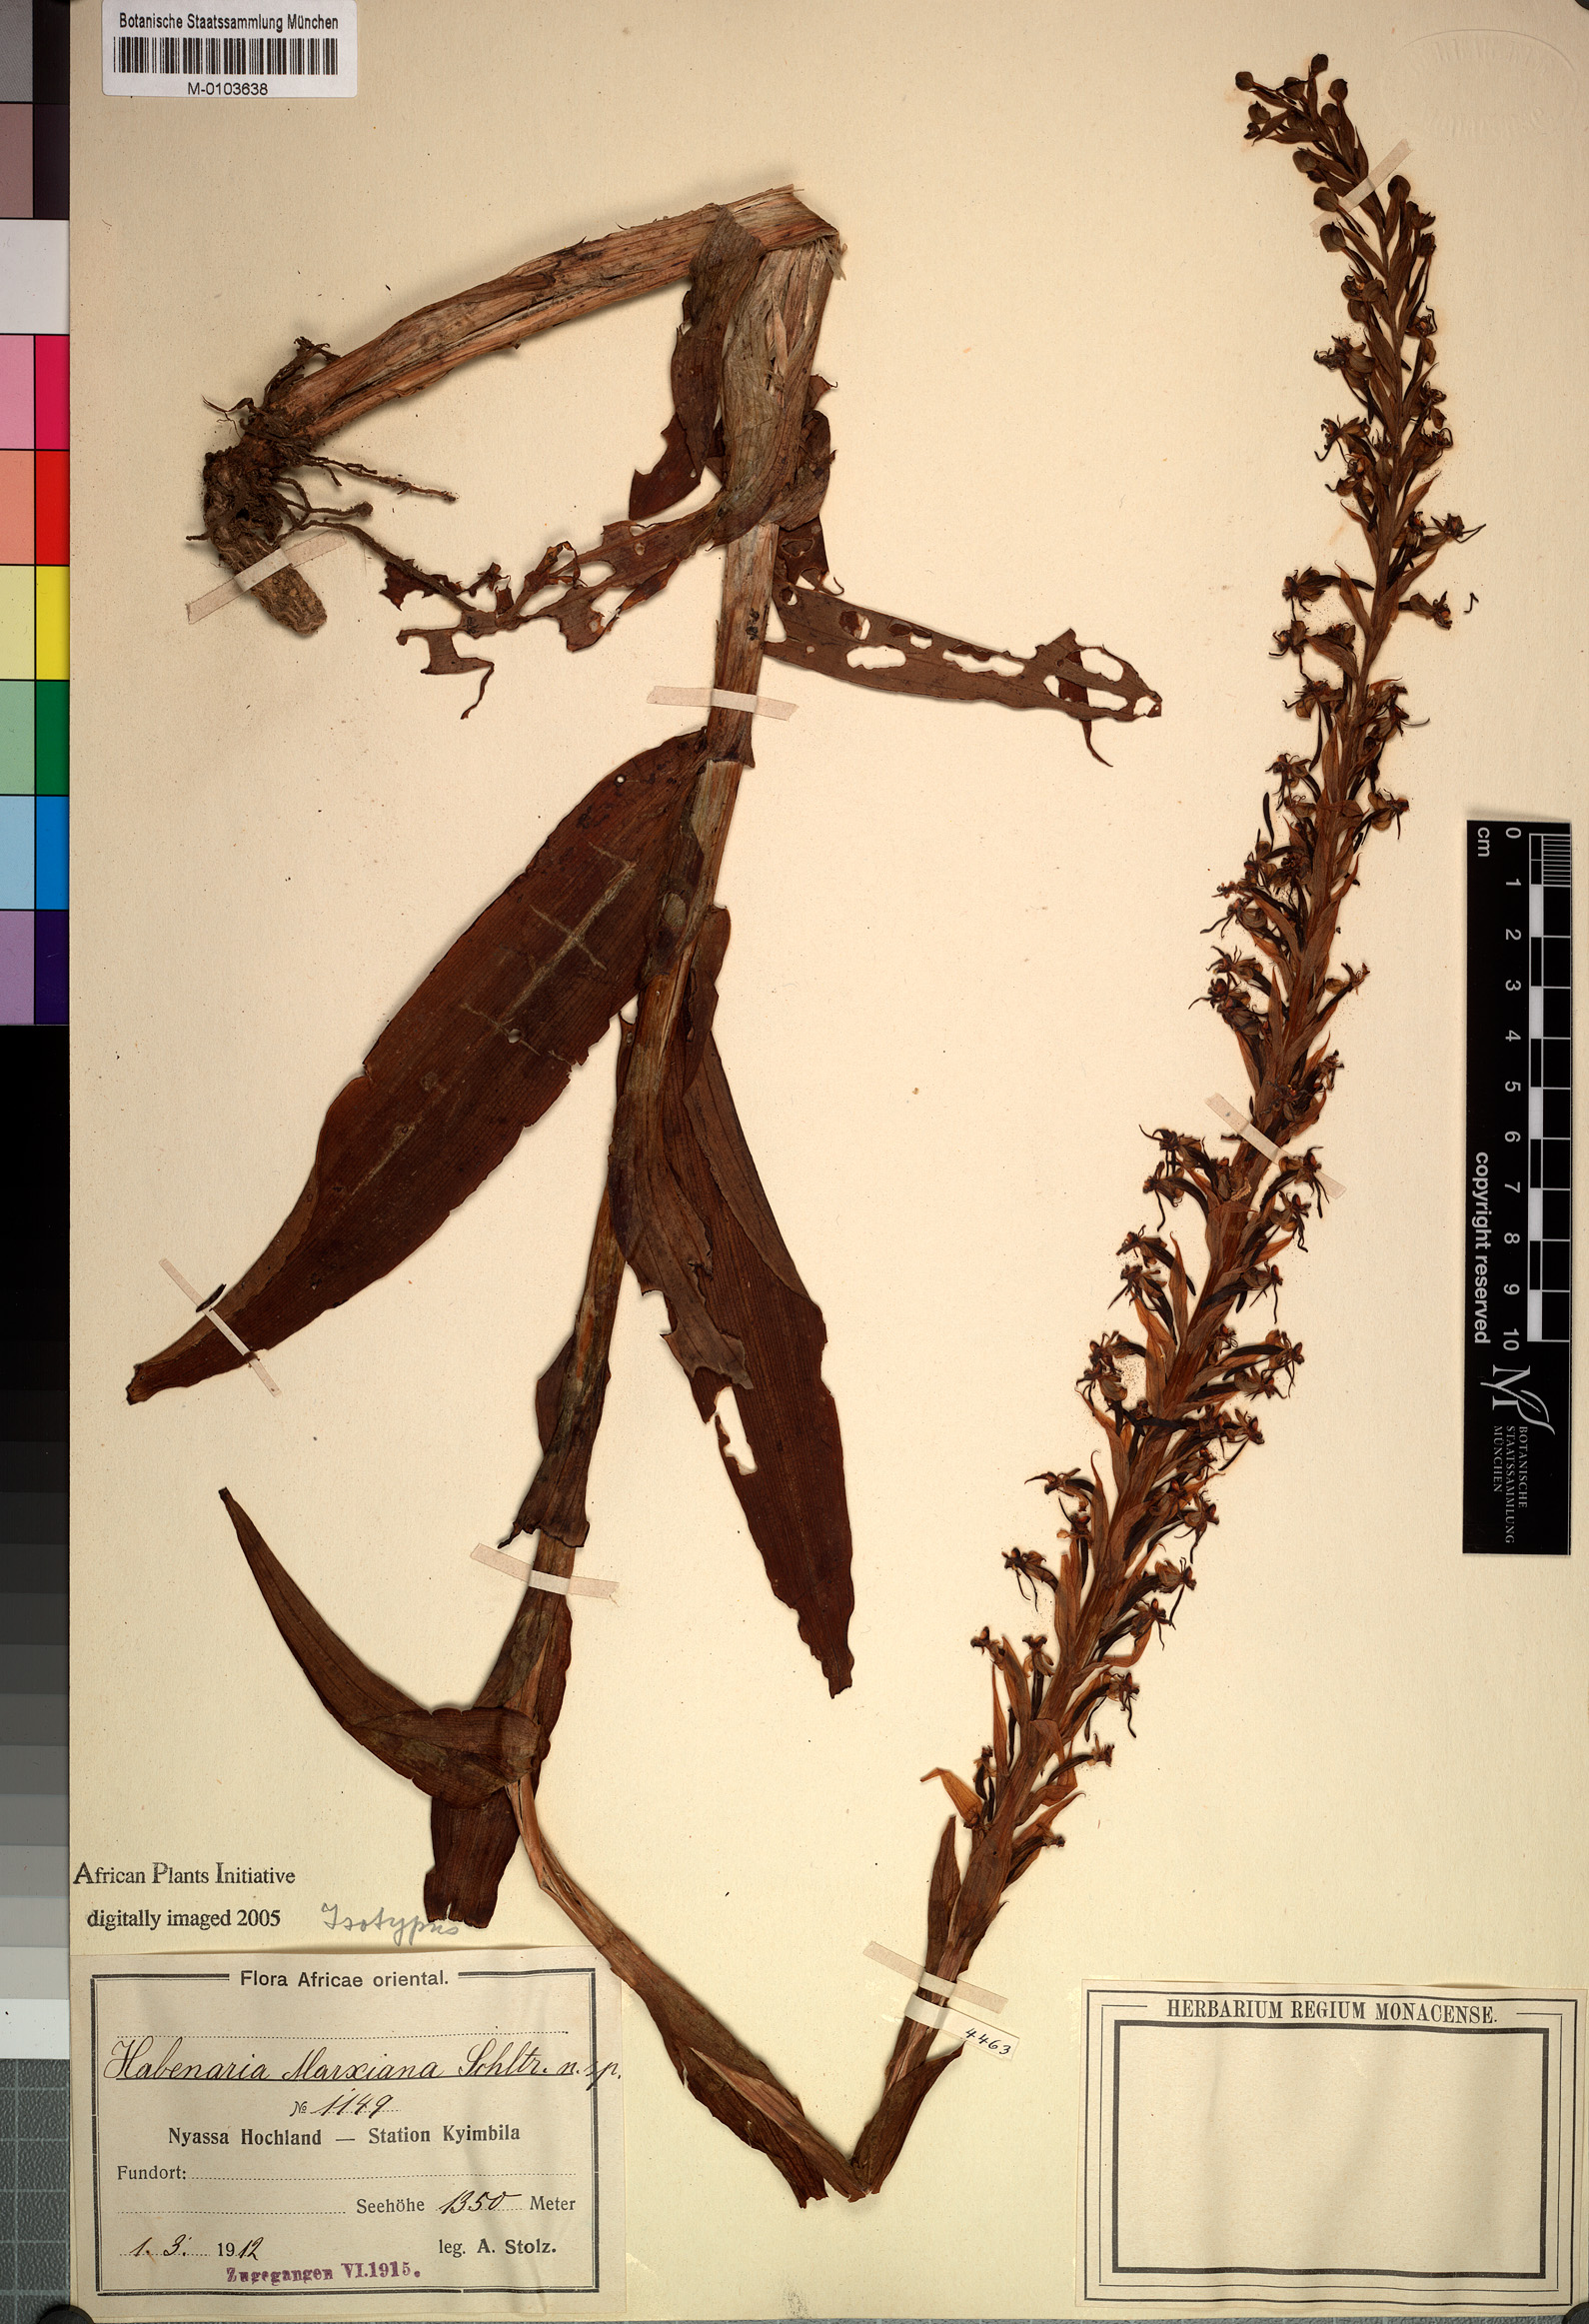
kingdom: Plantae
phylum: Tracheophyta
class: Liliopsida
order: Asparagales
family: Orchidaceae
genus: Habenaria
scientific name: Habenaria isoantha
